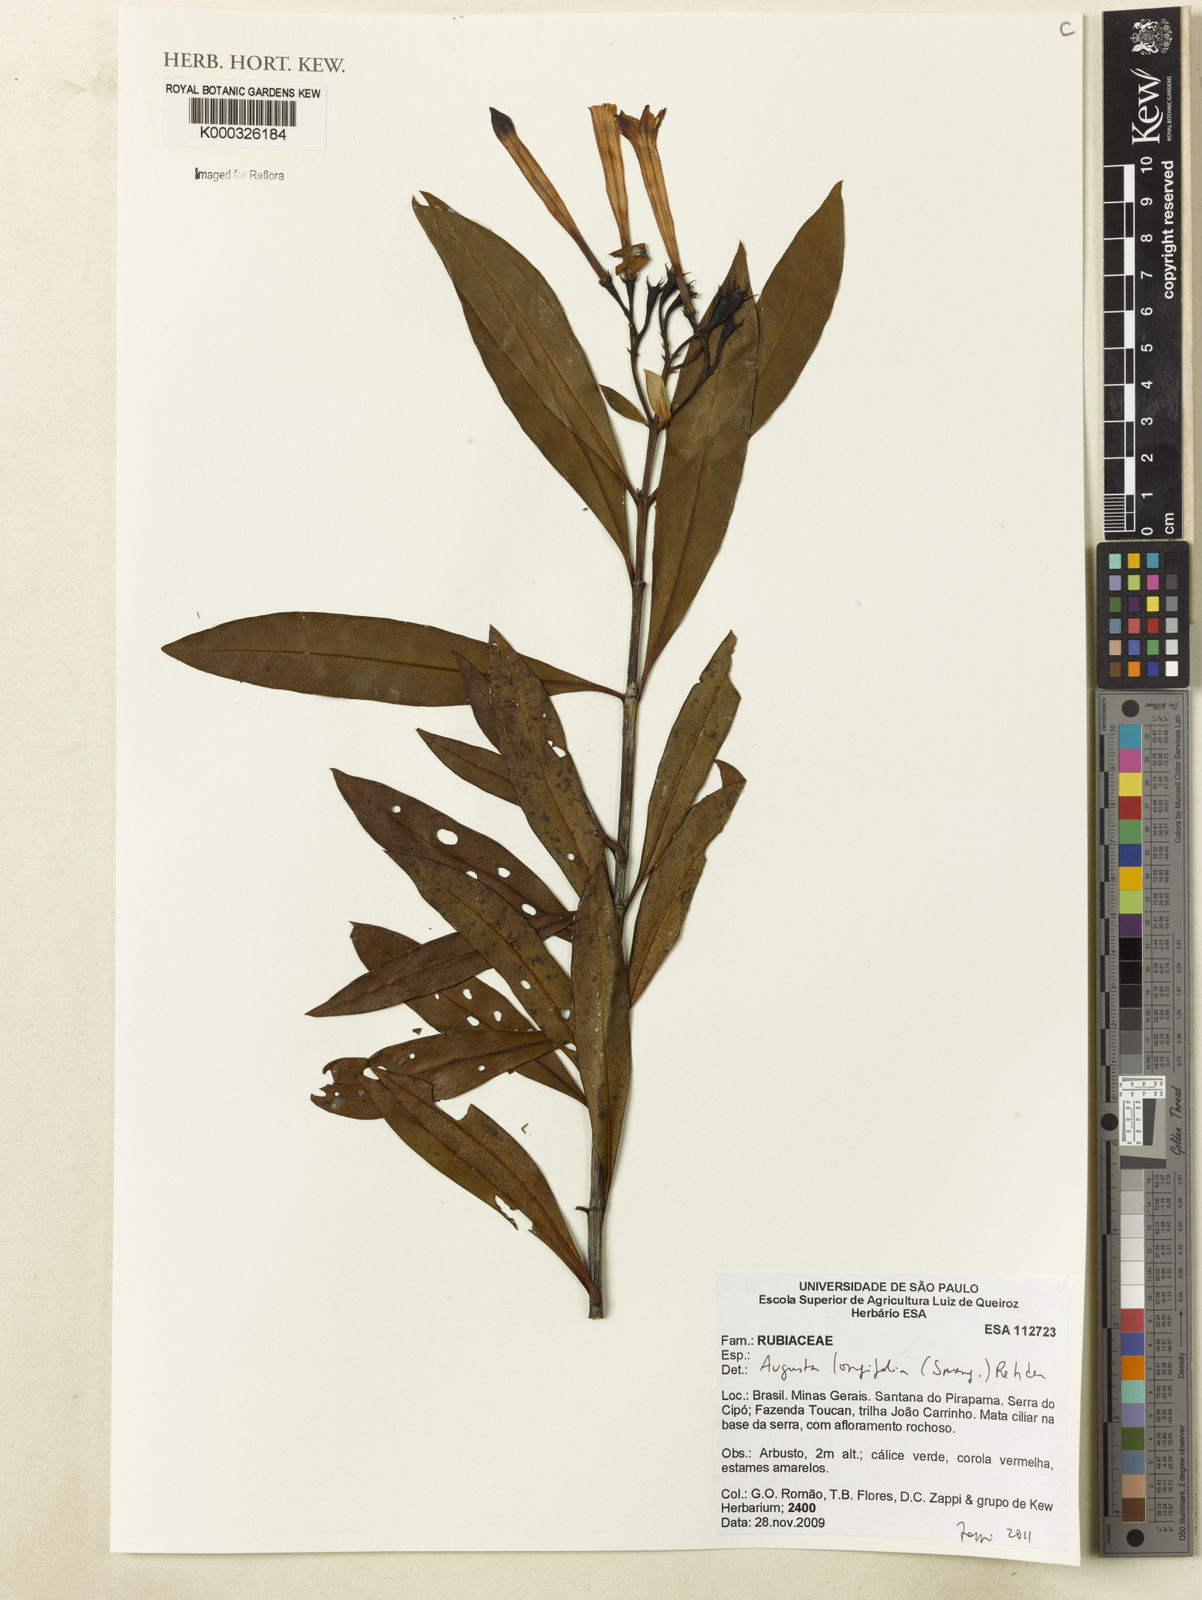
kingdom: Plantae
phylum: Tracheophyta
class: Magnoliopsida
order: Gentianales
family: Rubiaceae
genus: Augusta
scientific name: Augusta longifolia
